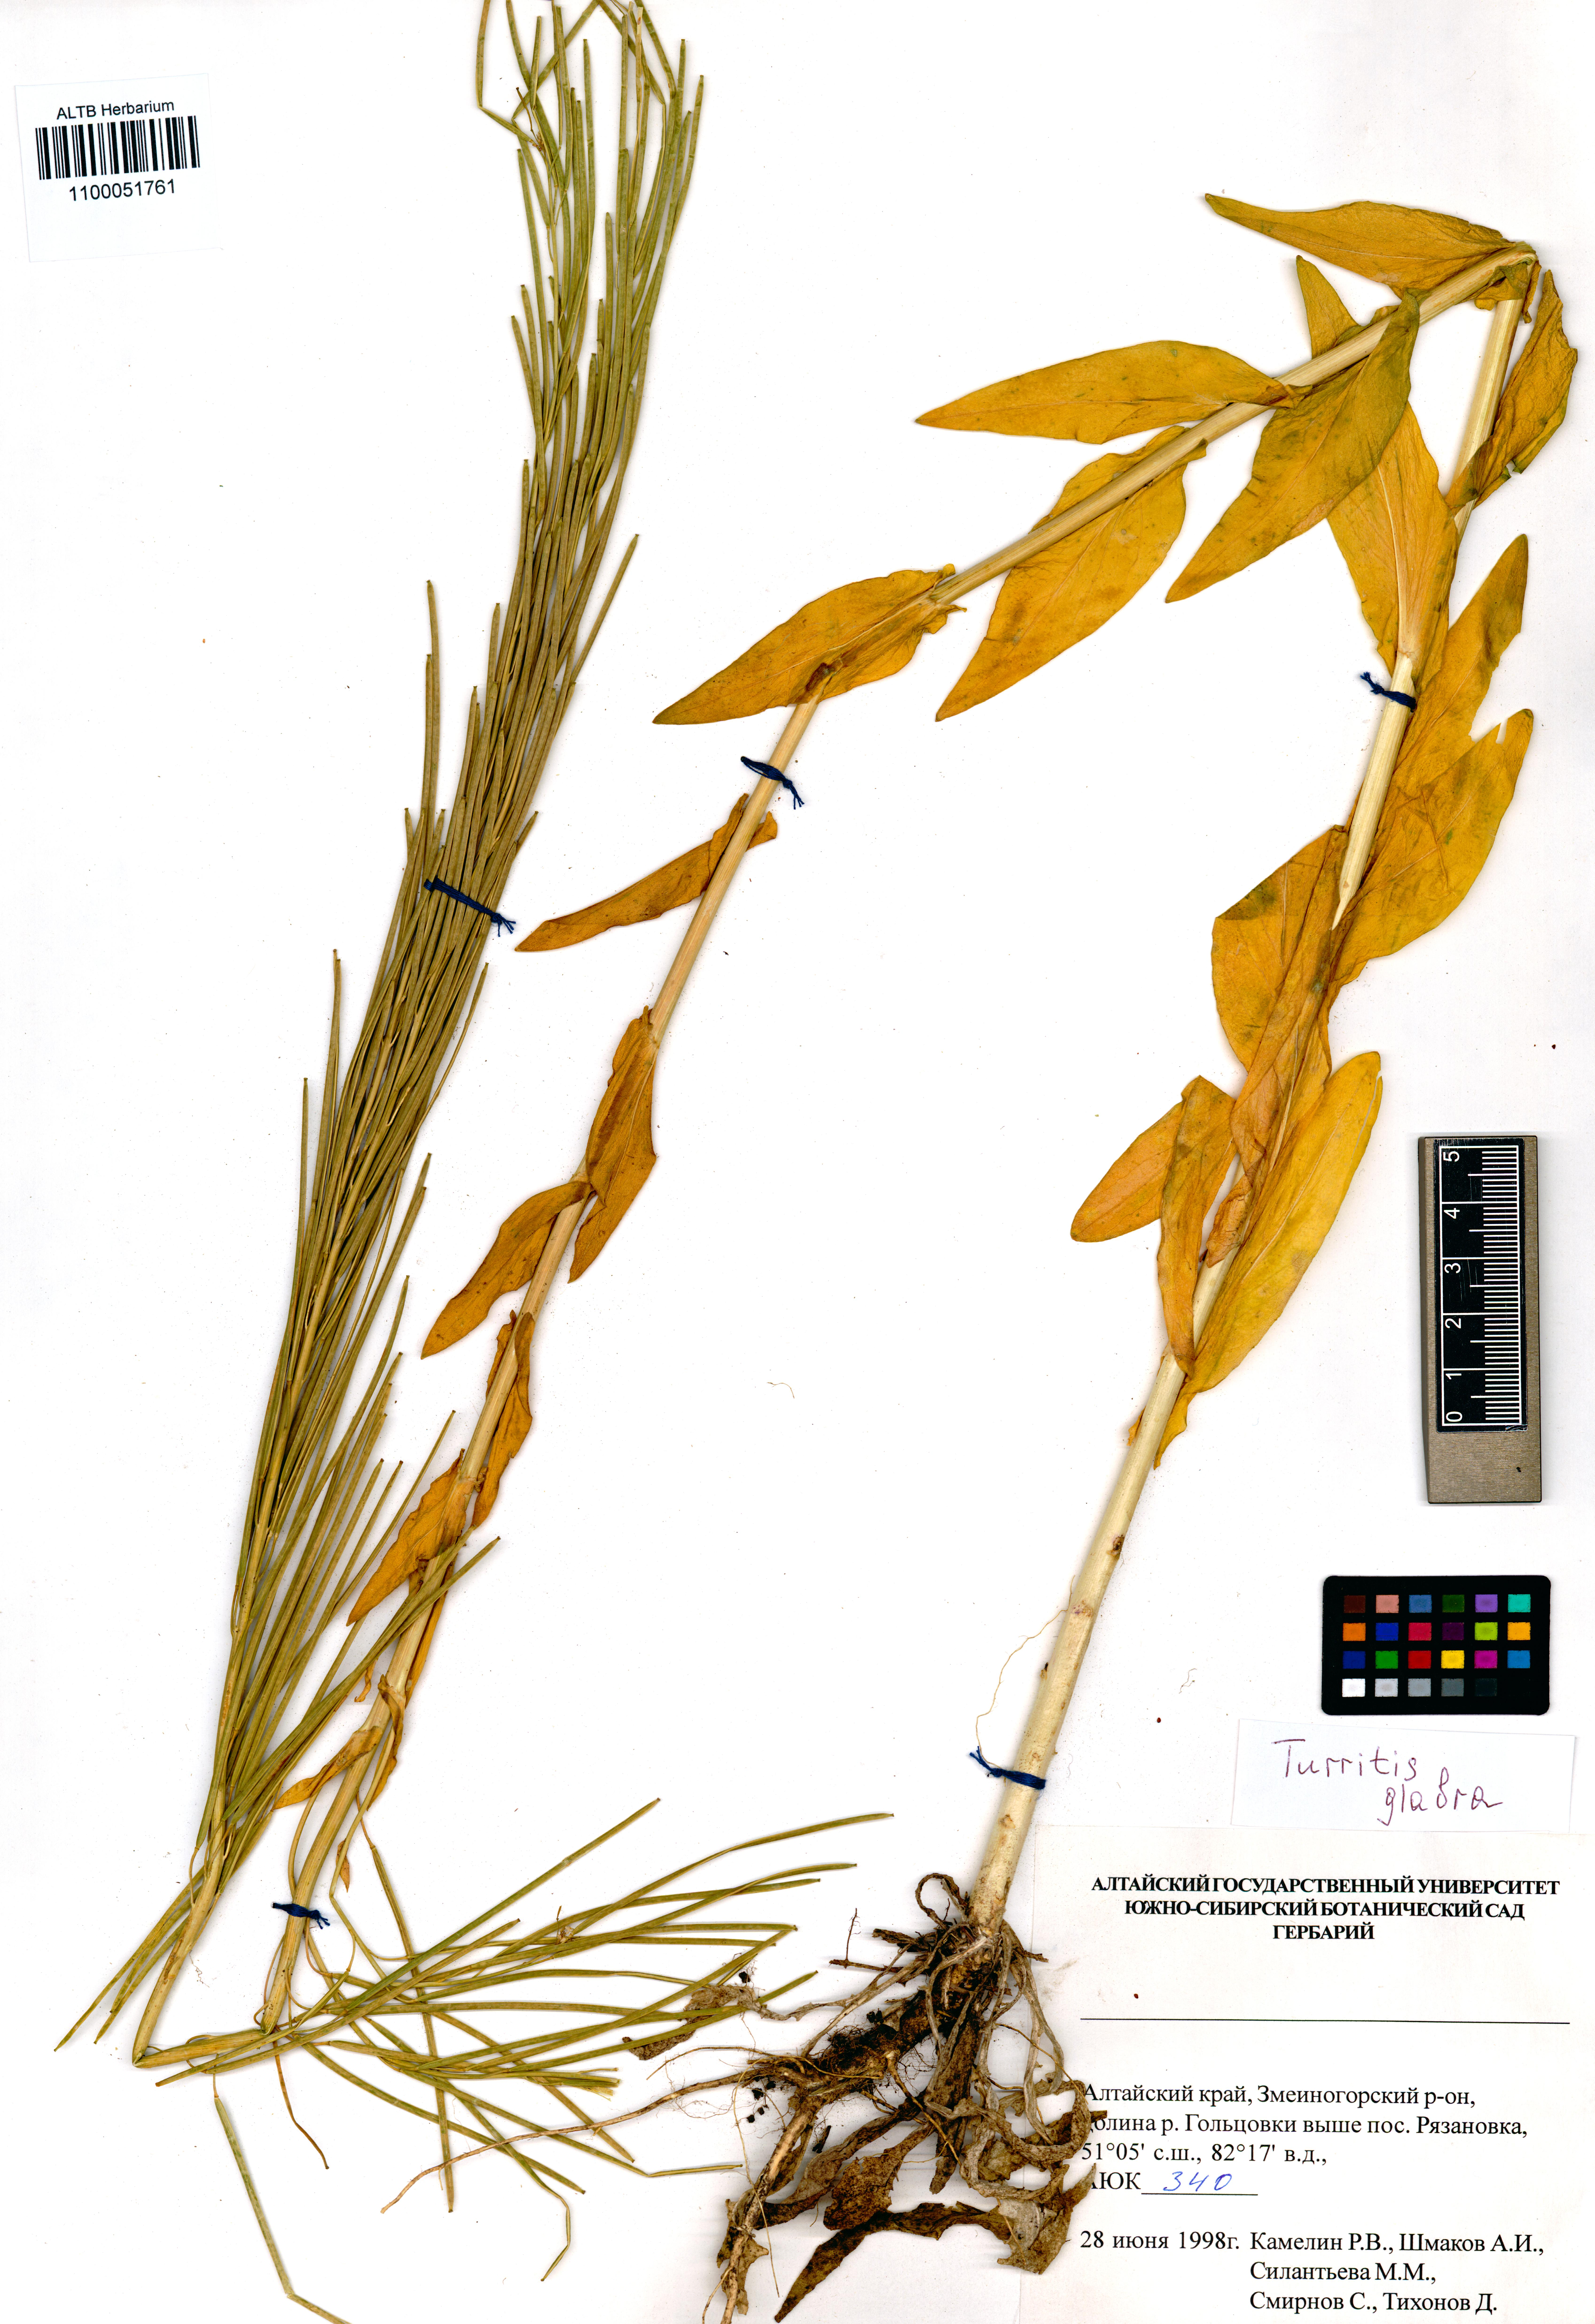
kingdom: Plantae
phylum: Tracheophyta
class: Magnoliopsida
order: Brassicales
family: Brassicaceae
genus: Turritis
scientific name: Turritis glabra
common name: Tower rockcress
